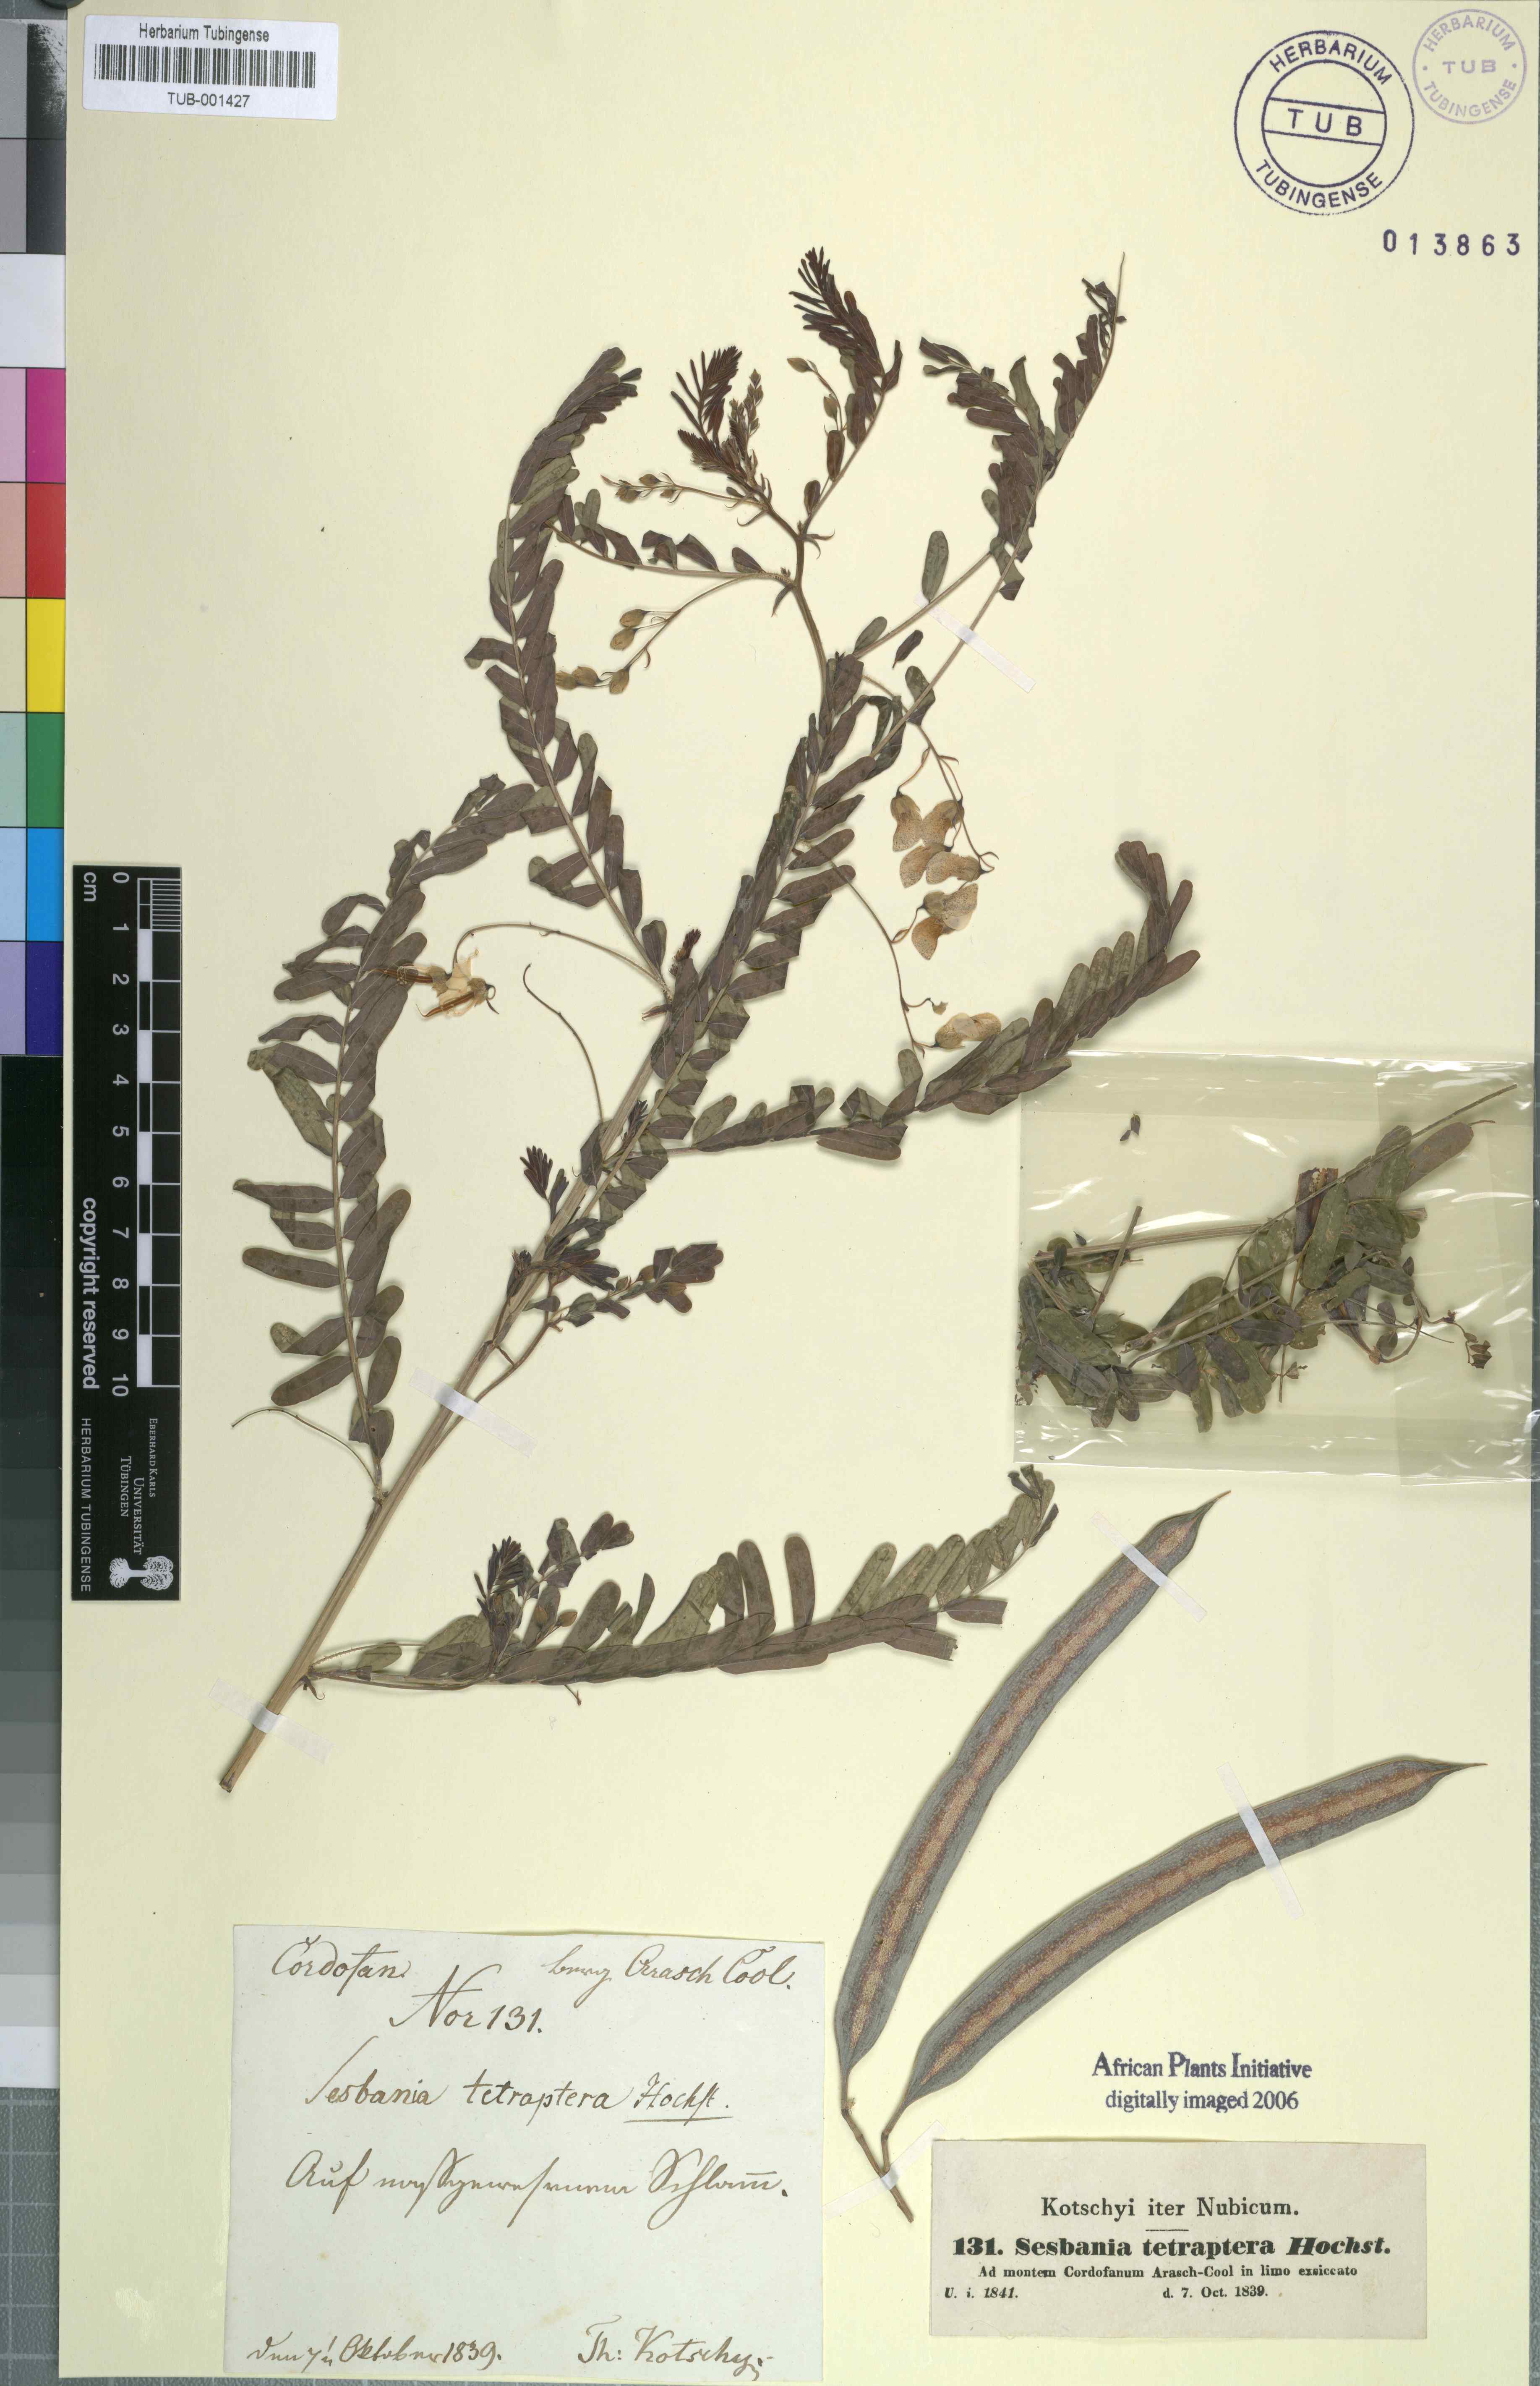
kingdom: Plantae
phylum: Tracheophyta
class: Magnoliopsida
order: Fabales
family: Fabaceae
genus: Sesbania
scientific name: Sesbania tetraptera
